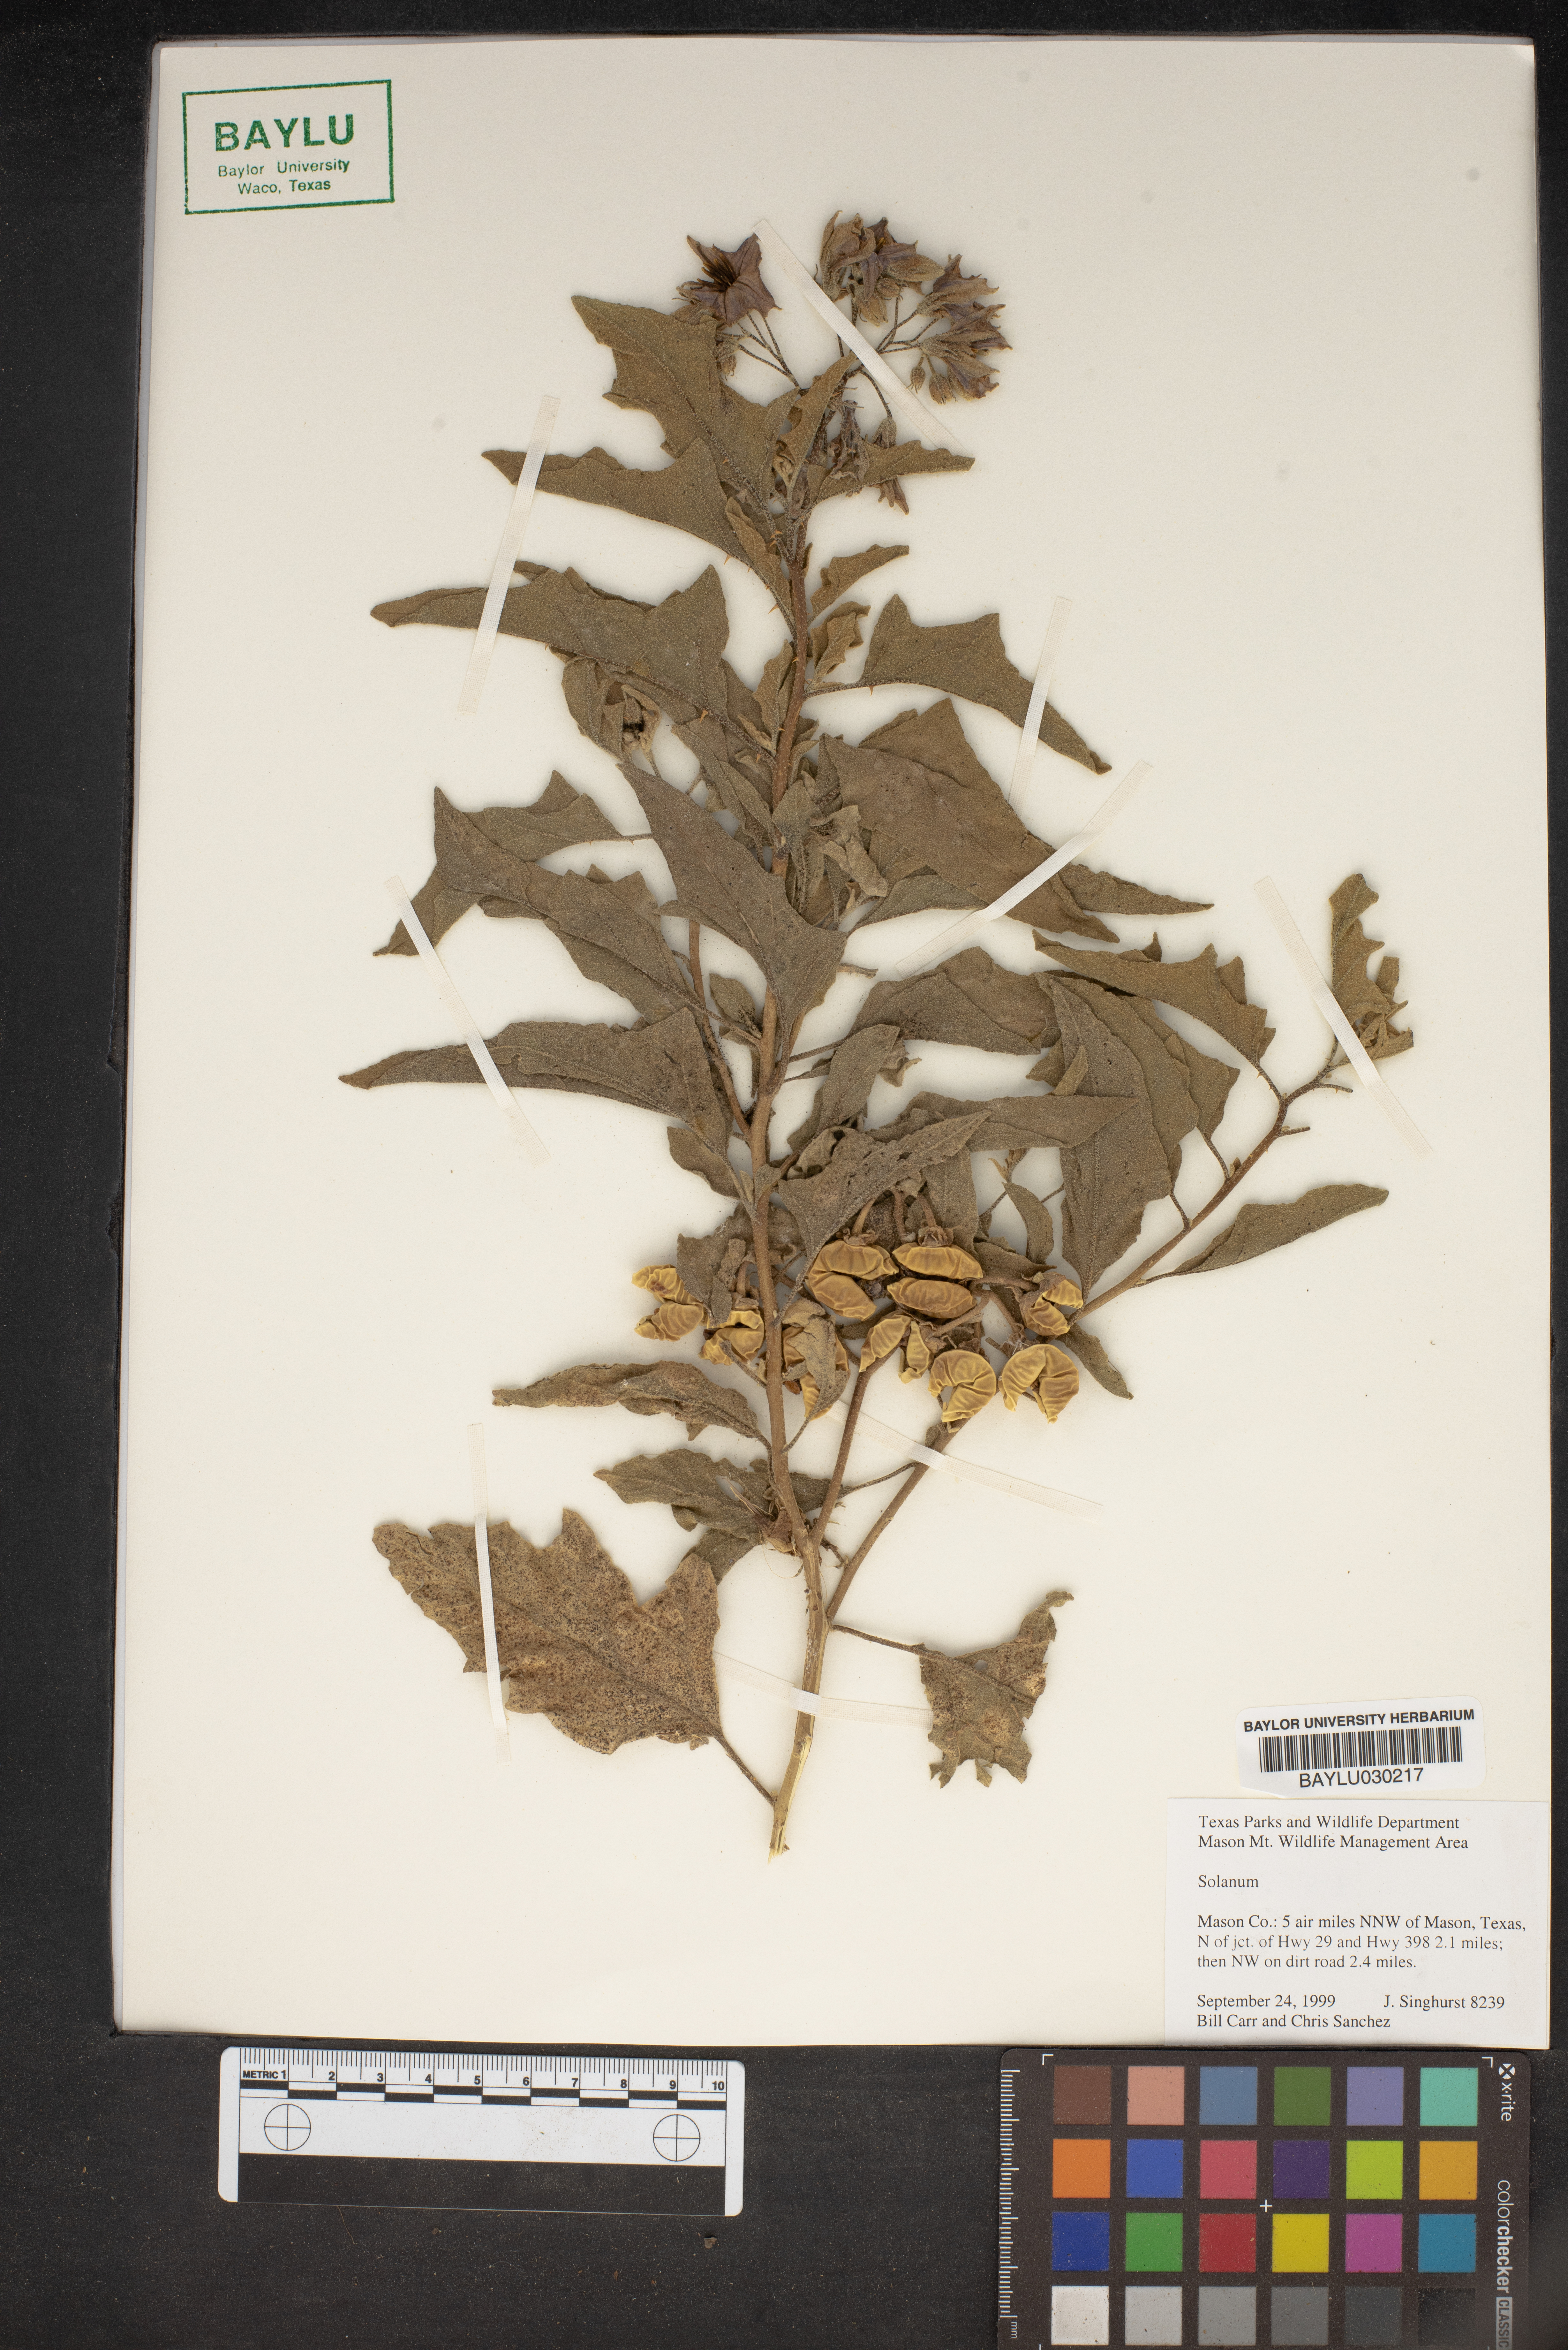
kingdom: Plantae
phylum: Tracheophyta
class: Magnoliopsida
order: Solanales
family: Solanaceae
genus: Solanum
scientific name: Solanum
